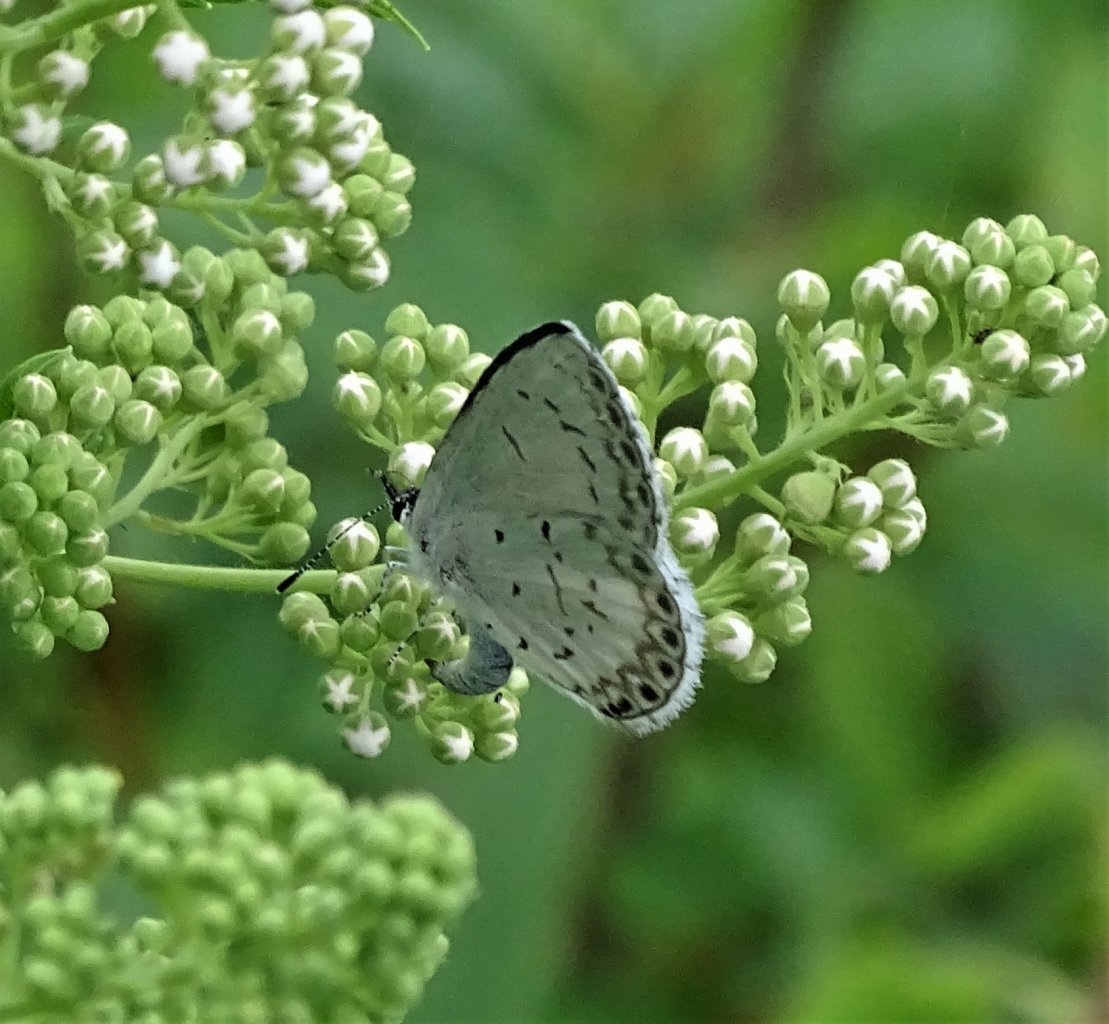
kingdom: Animalia
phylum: Arthropoda
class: Insecta
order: Lepidoptera
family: Lycaenidae
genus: Celastrina
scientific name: Celastrina
